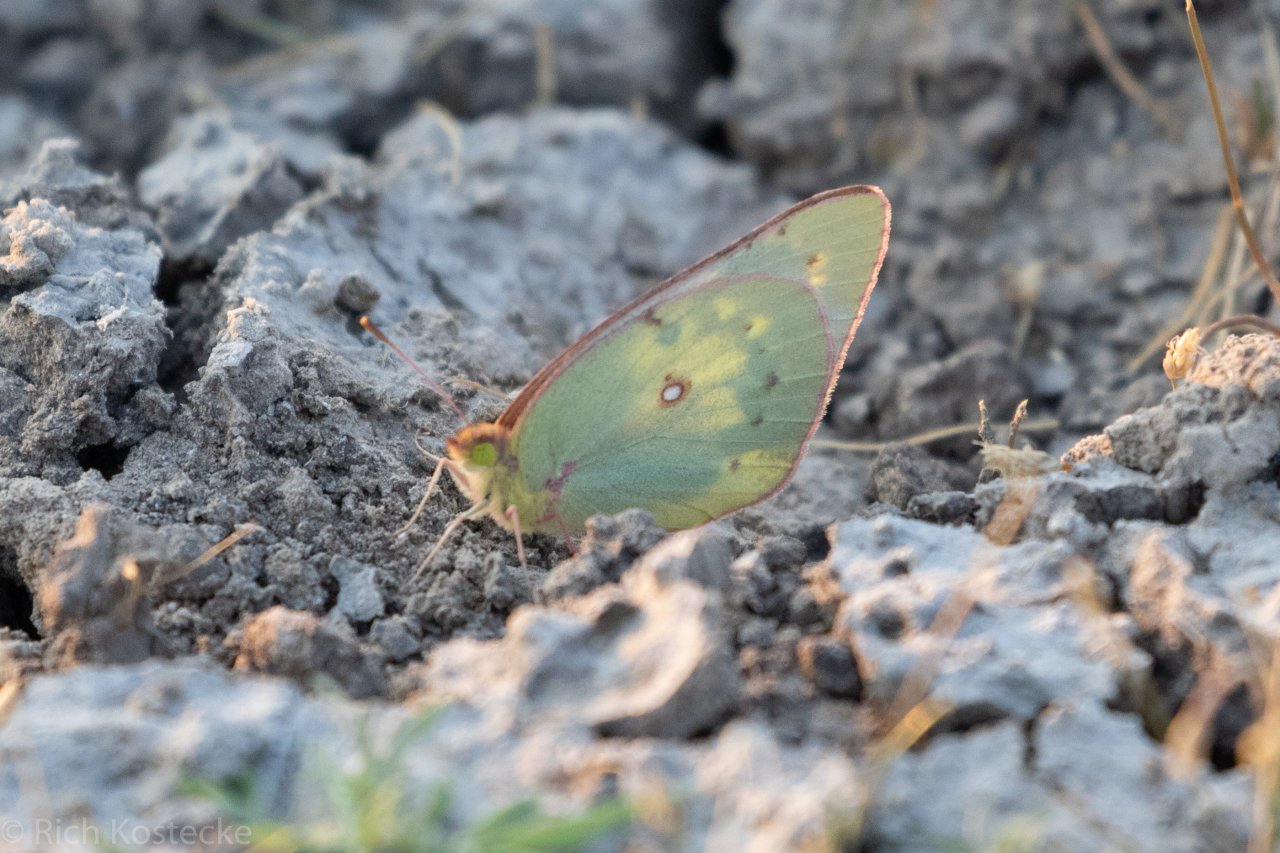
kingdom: Animalia
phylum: Arthropoda
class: Insecta
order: Lepidoptera
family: Pieridae
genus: Colias
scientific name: Colias eurytheme
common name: Orange Sulphur
